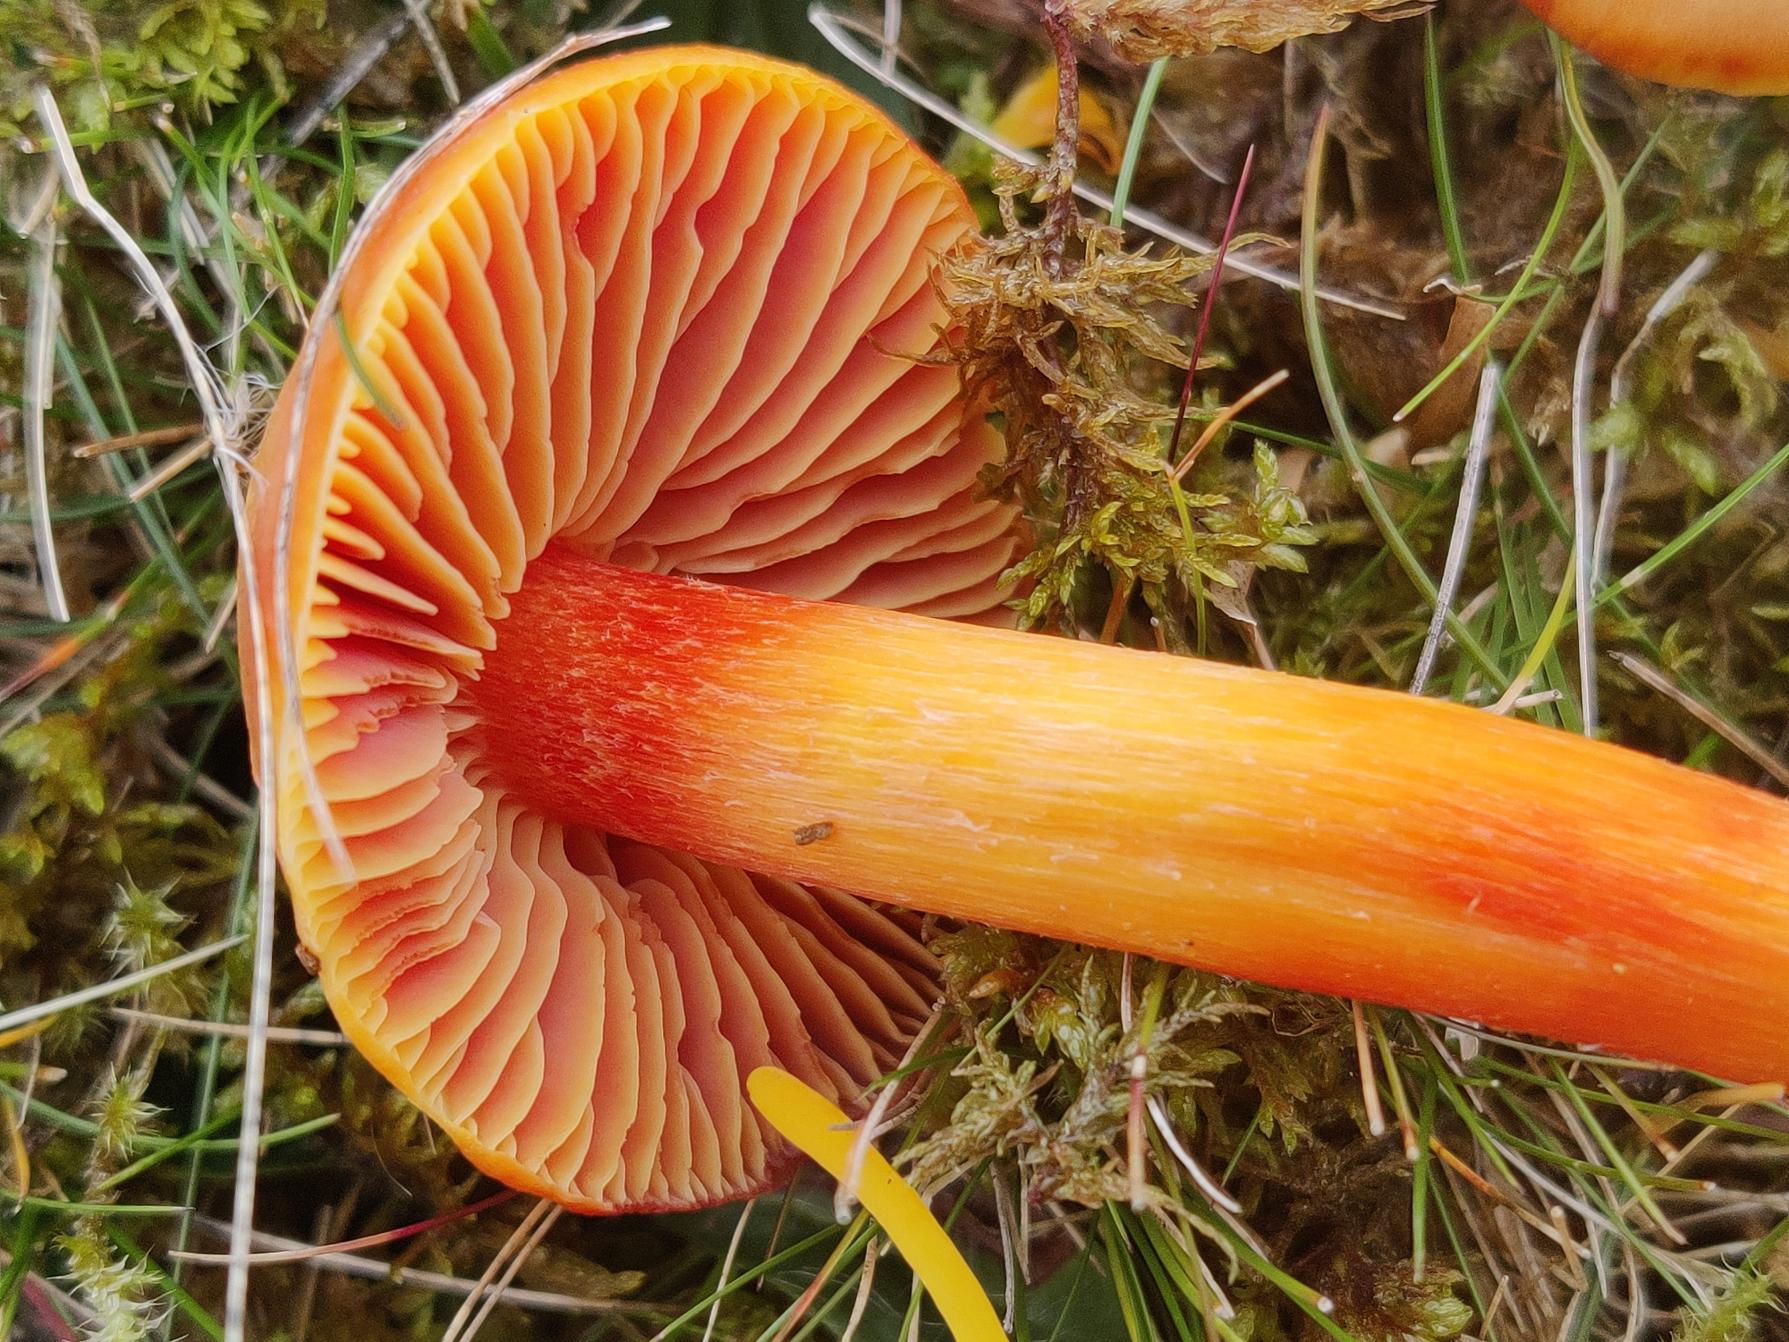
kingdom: Fungi
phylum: Basidiomycota
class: Agaricomycetes
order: Agaricales
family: Hygrophoraceae
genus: Hygrocybe
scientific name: Hygrocybe punicea
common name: Skarlagen-vokshat
